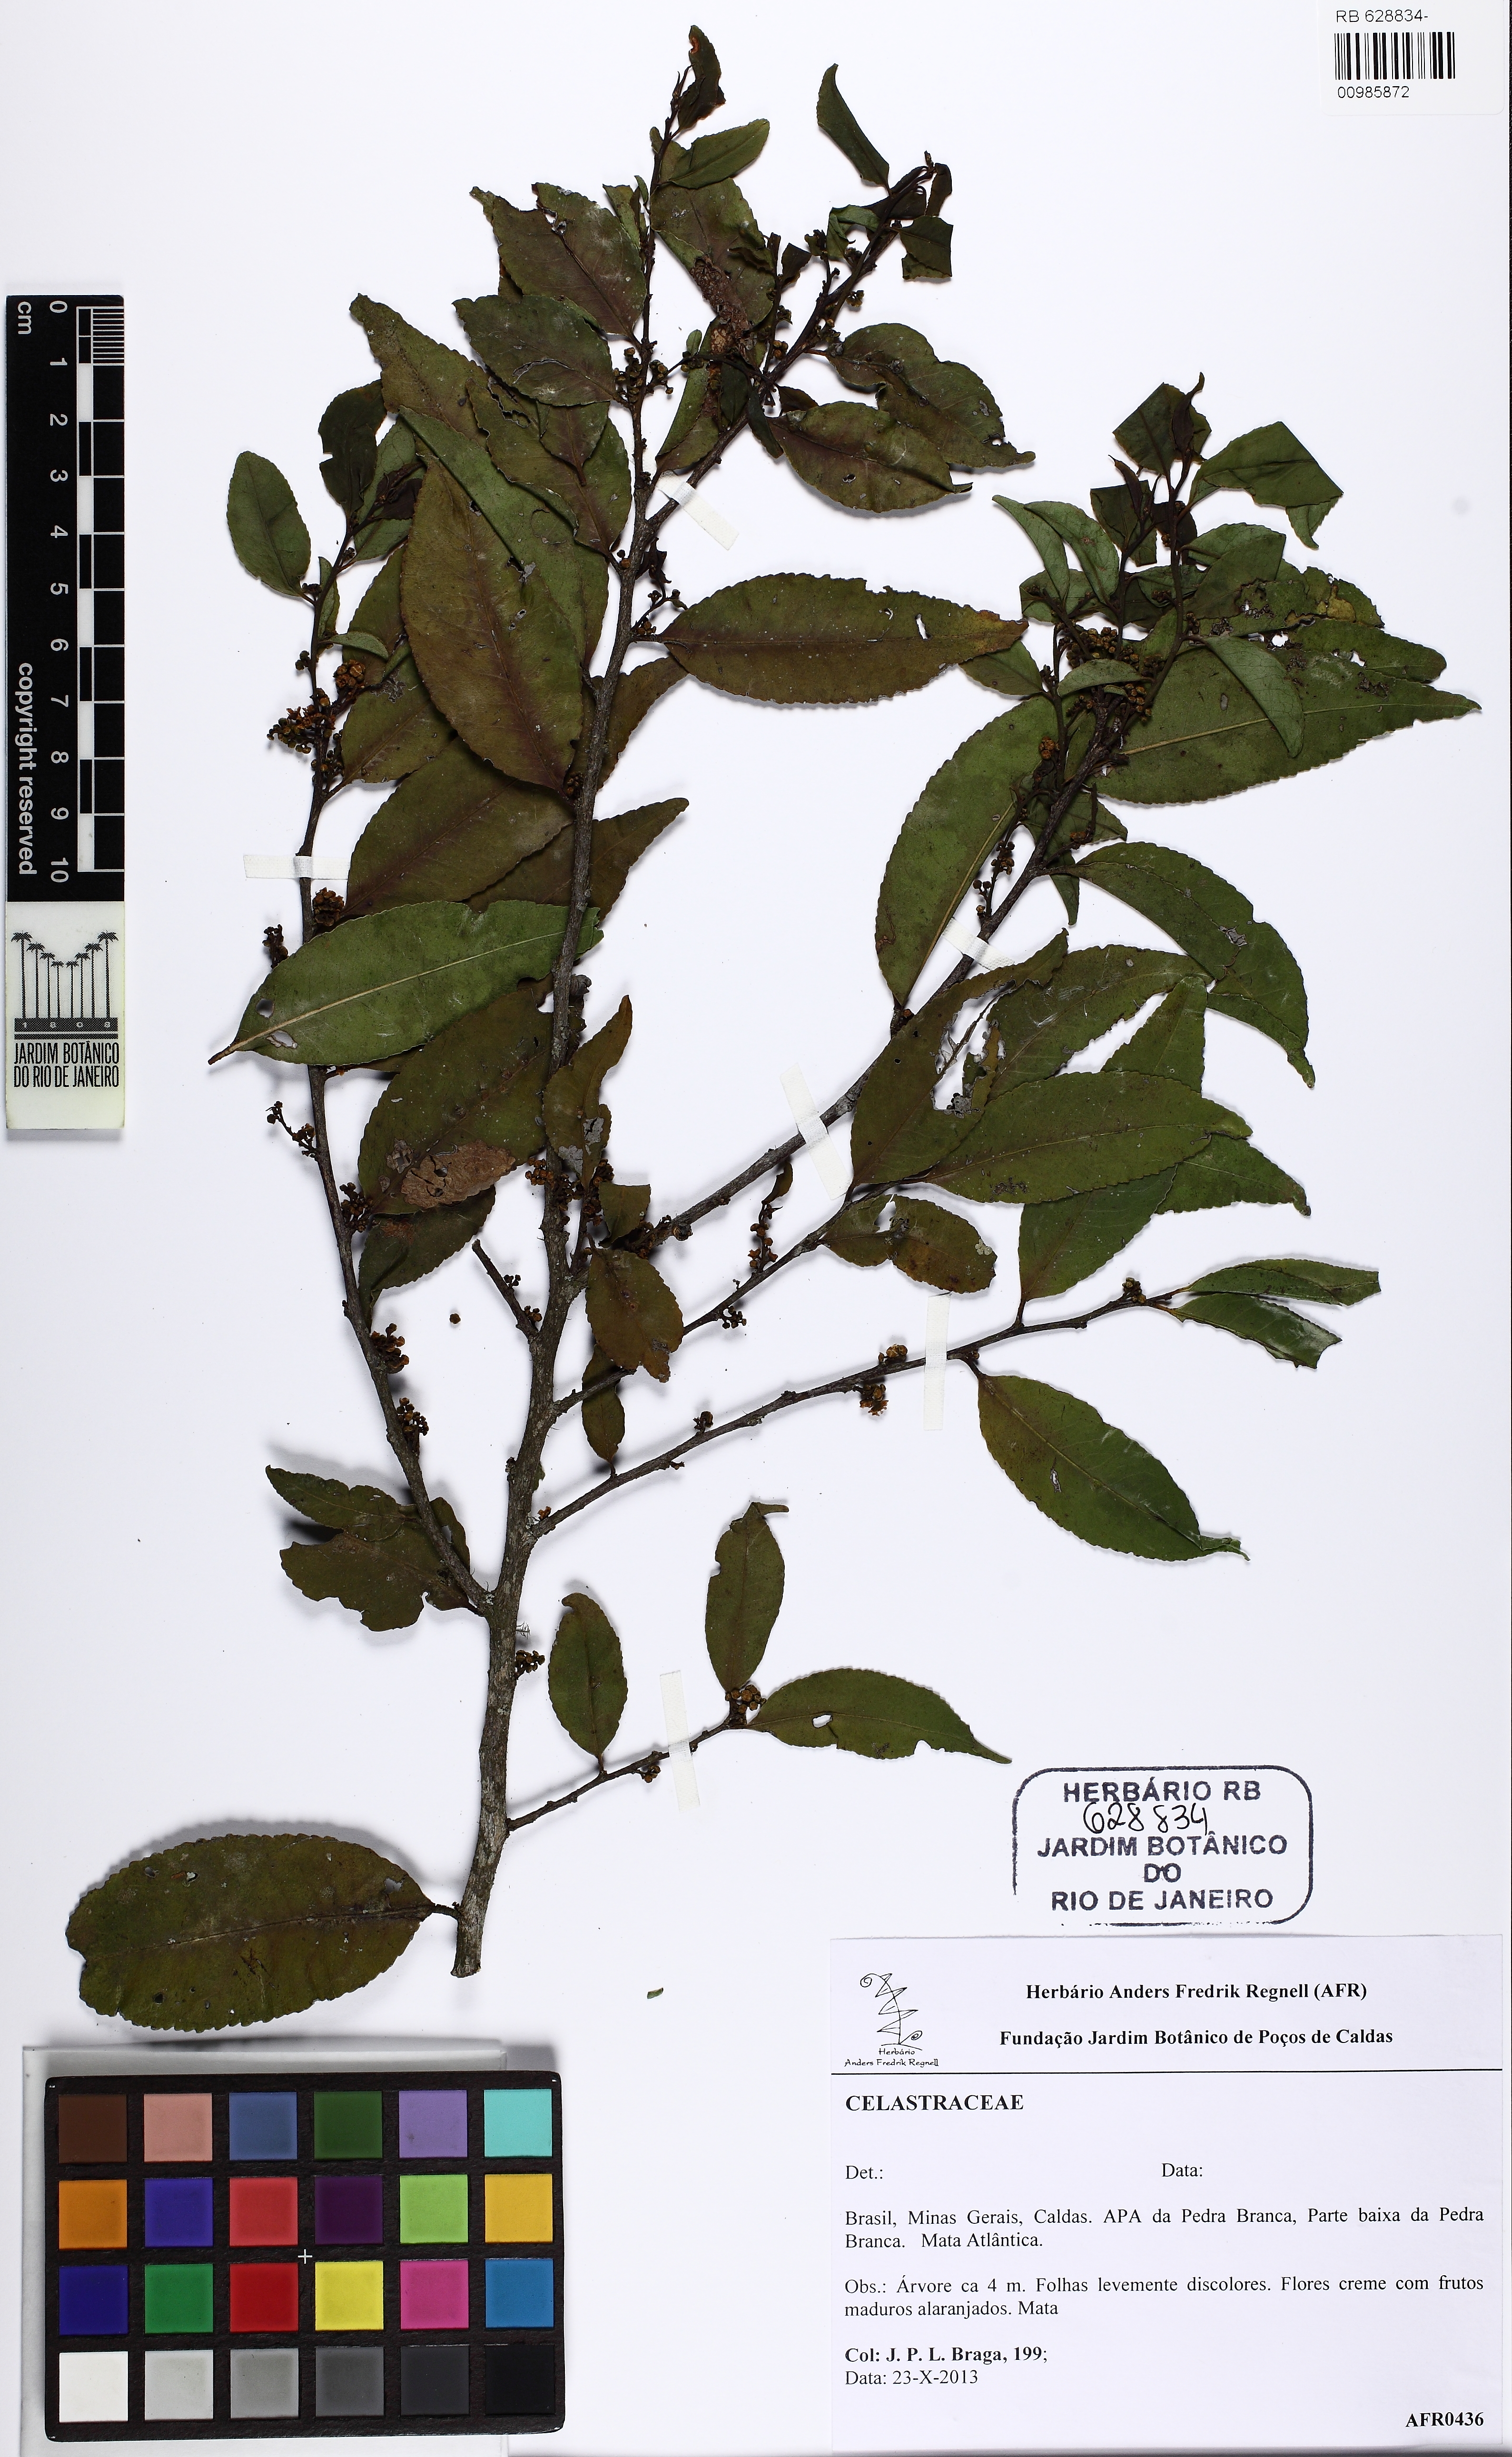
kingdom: Plantae
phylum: Tracheophyta
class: Magnoliopsida
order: Celastrales
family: Celastraceae
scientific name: Celastraceae
